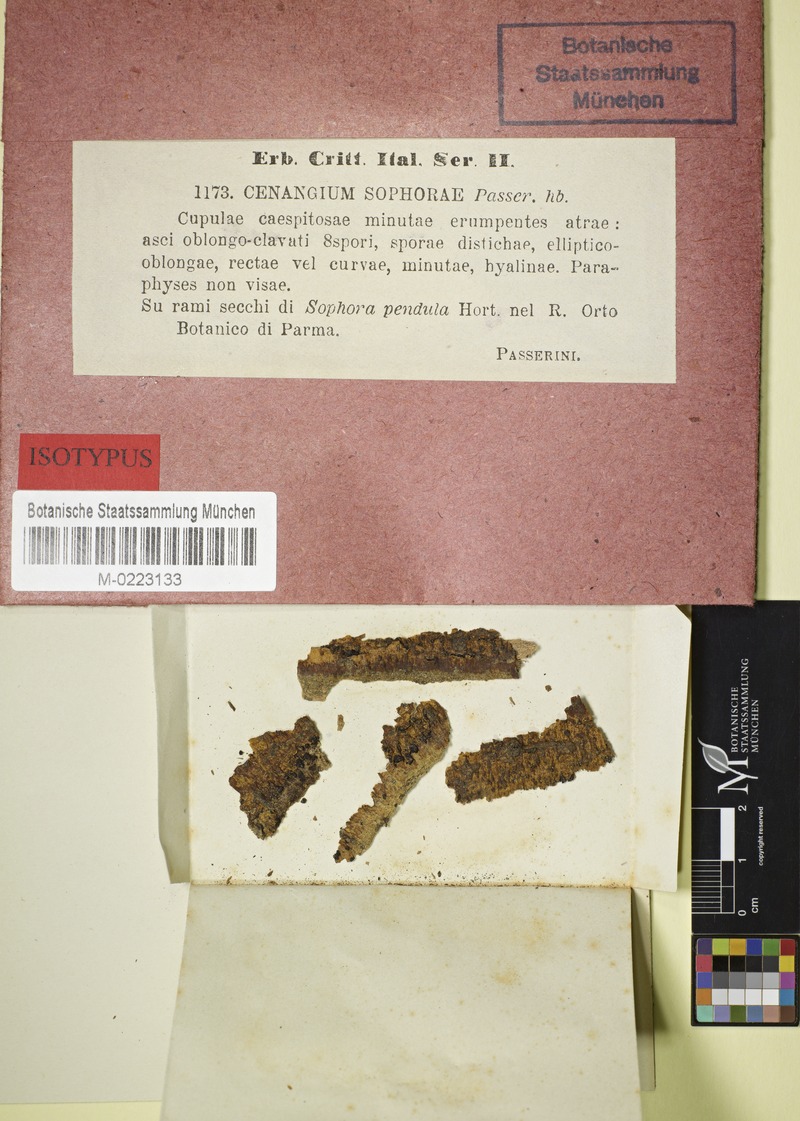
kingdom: Fungi
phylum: Ascomycota
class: Leotiomycetes
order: Helotiales
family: Cenangiaceae
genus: Cenangium
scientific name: Cenangium
